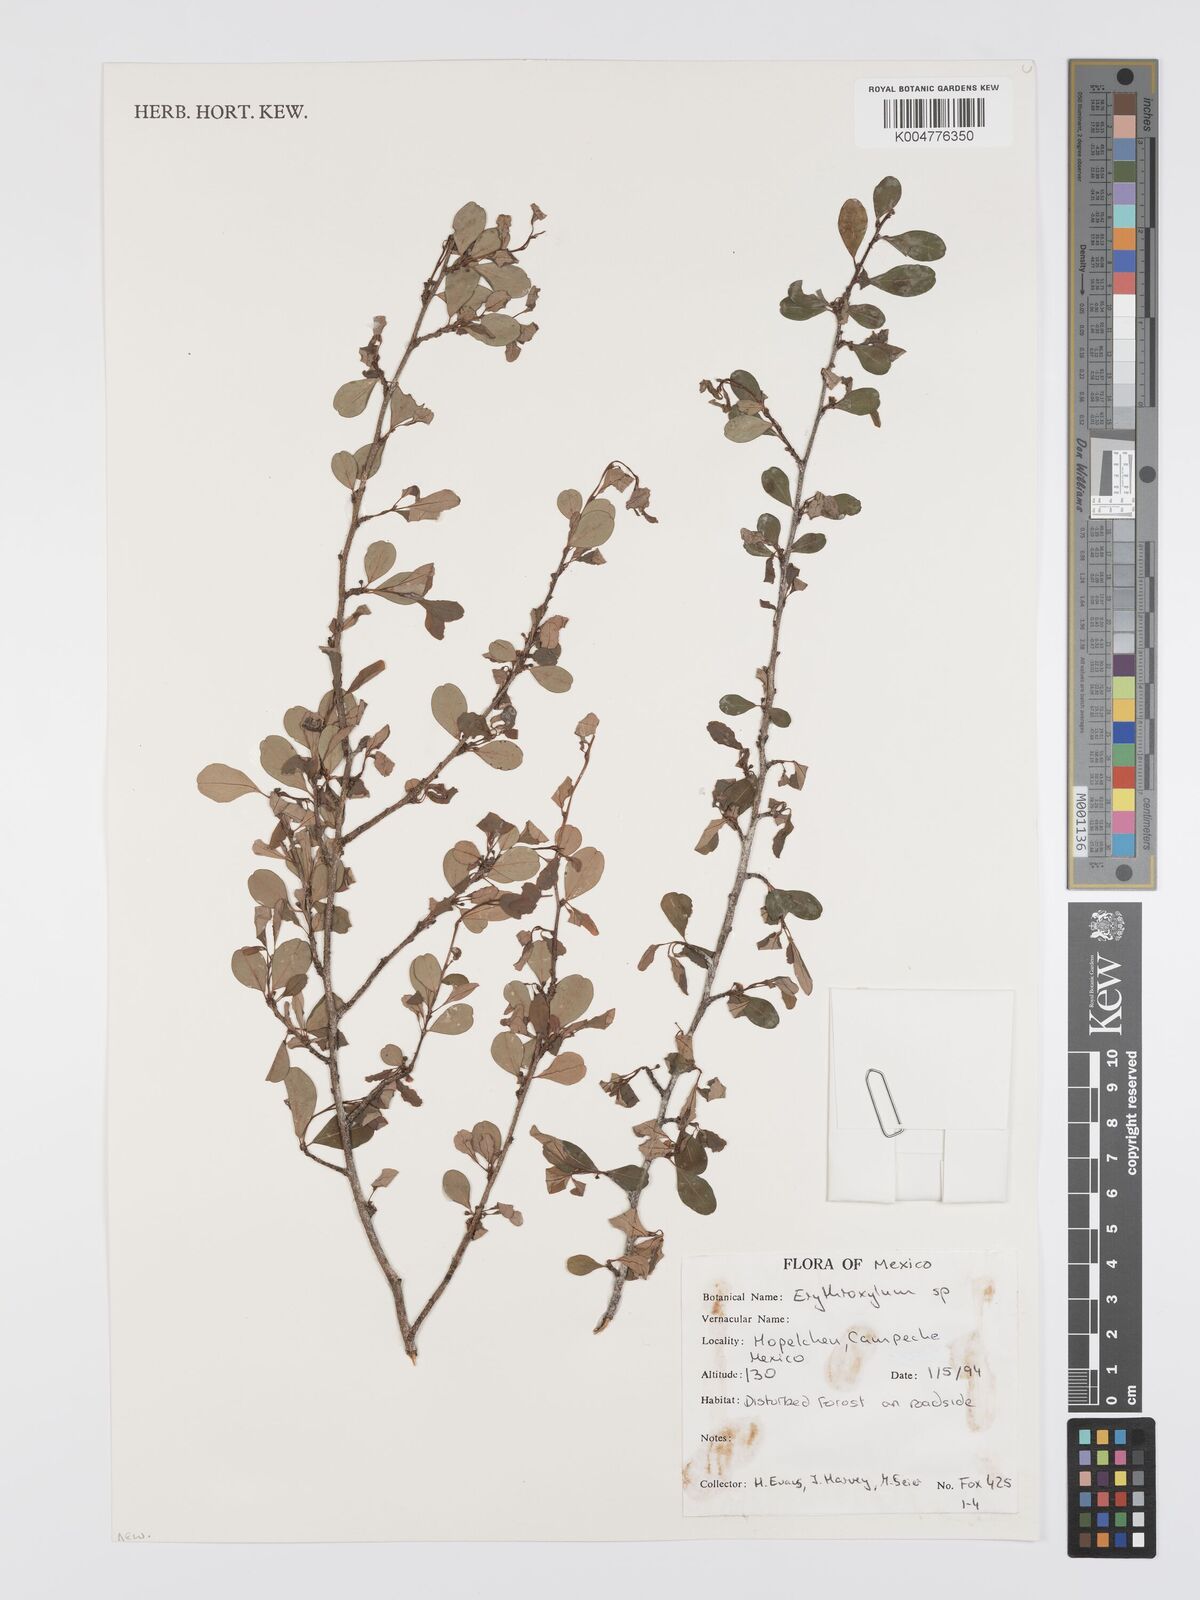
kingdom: Plantae
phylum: Tracheophyta
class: Magnoliopsida
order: Malpighiales
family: Erythroxylaceae
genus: Erythroxylum
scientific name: Erythroxylum
